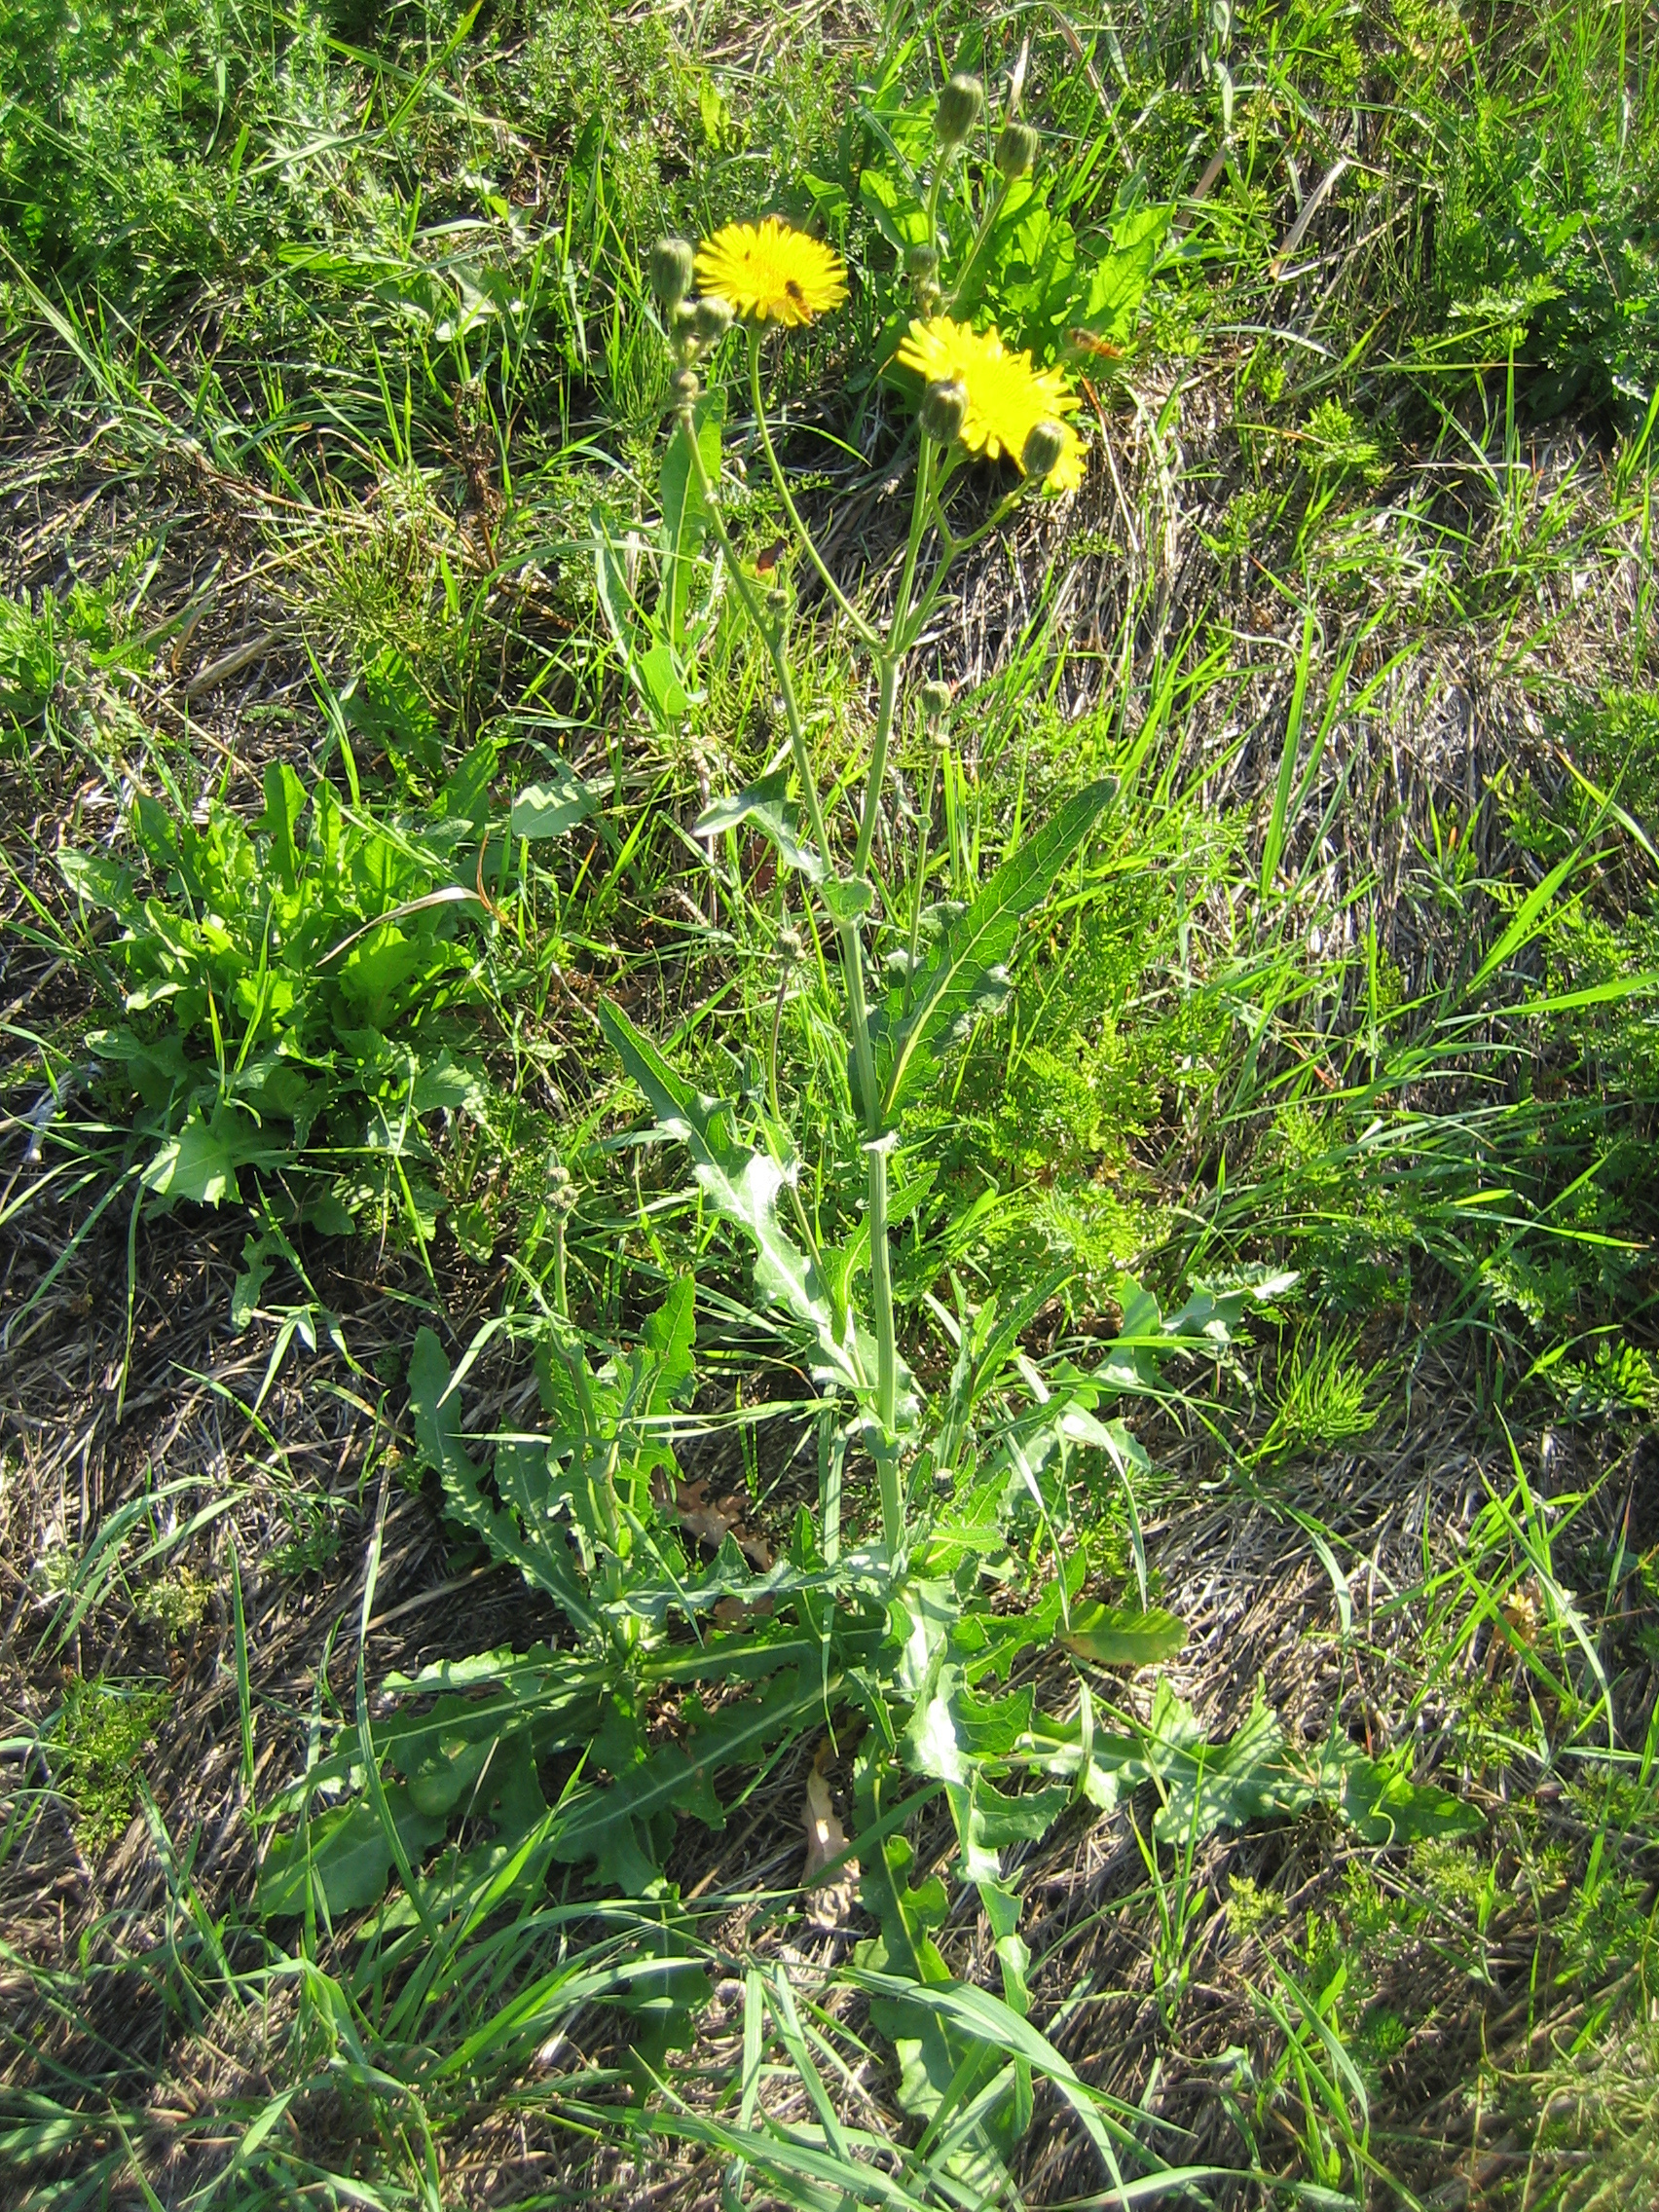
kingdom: Plantae
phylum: Tracheophyta
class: Magnoliopsida
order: Asterales
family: Asteraceae
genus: Sonchus
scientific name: Sonchus arvensis
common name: Perennial sow-thistle
